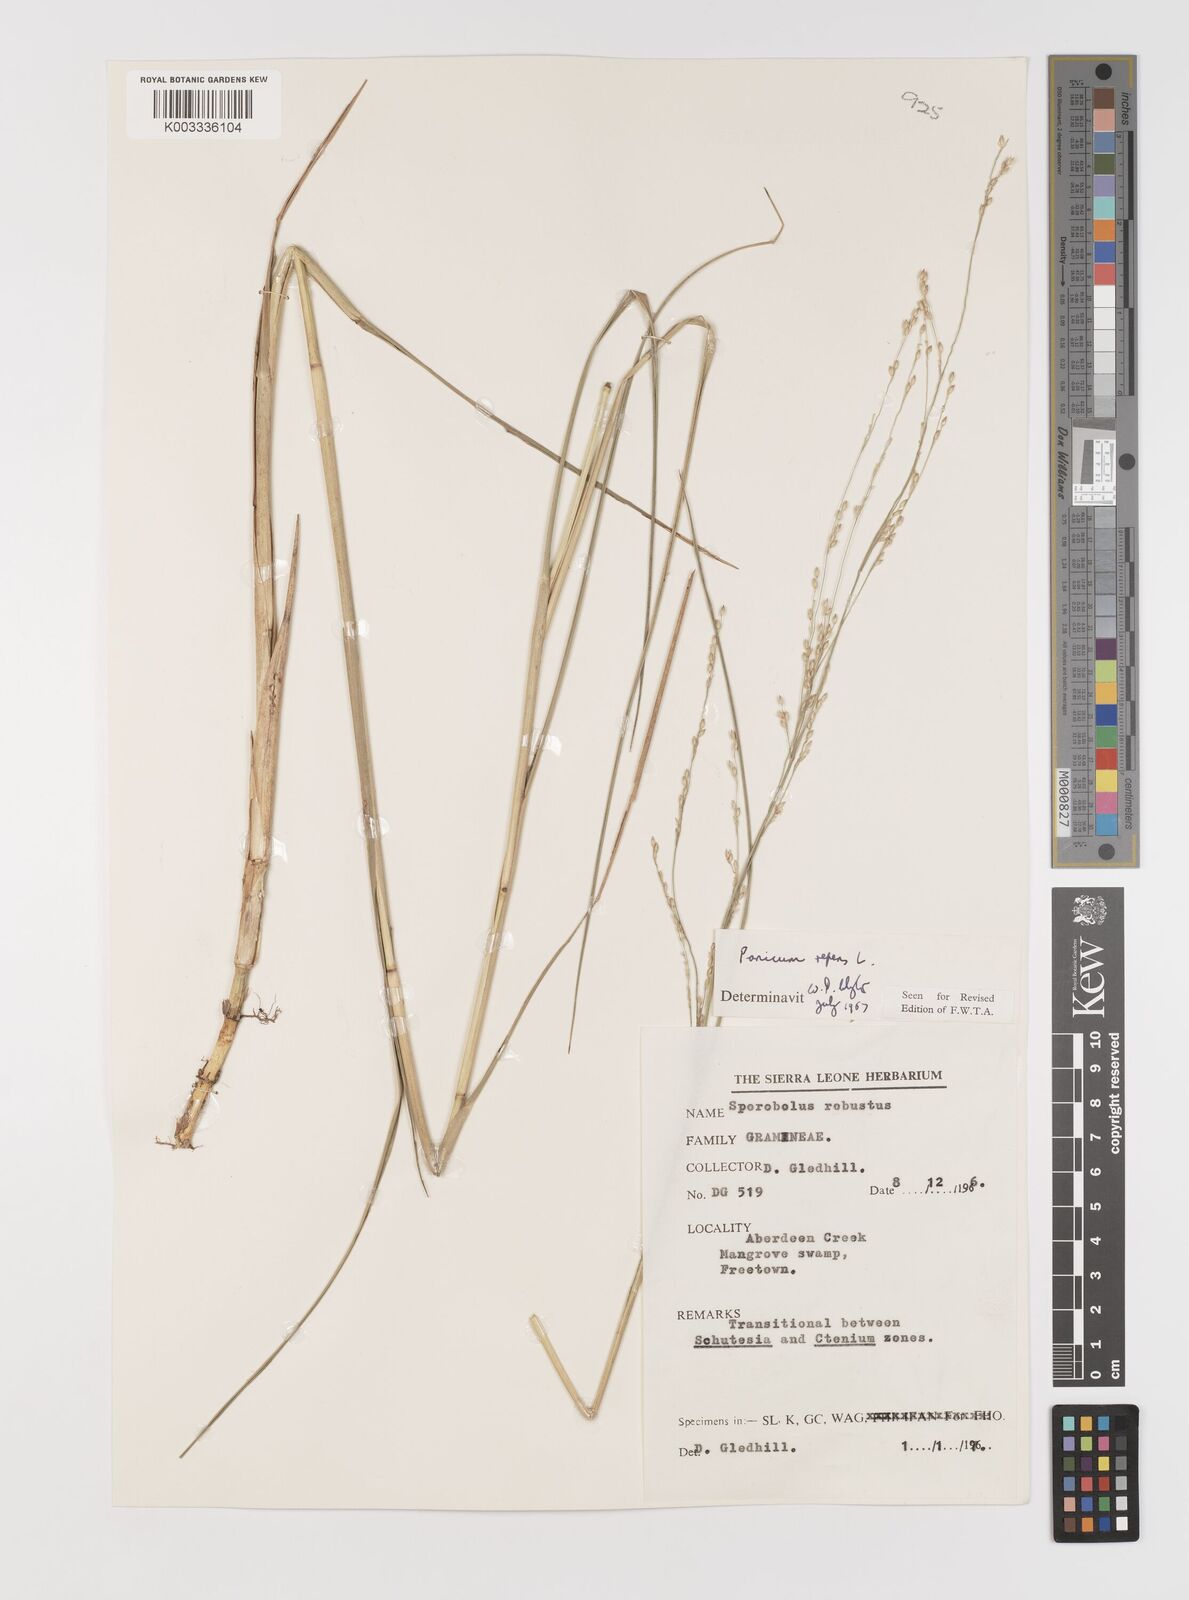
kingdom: Plantae
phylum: Tracheophyta
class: Liliopsida
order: Poales
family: Poaceae
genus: Panicum
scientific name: Panicum repens
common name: Torpedo grass
